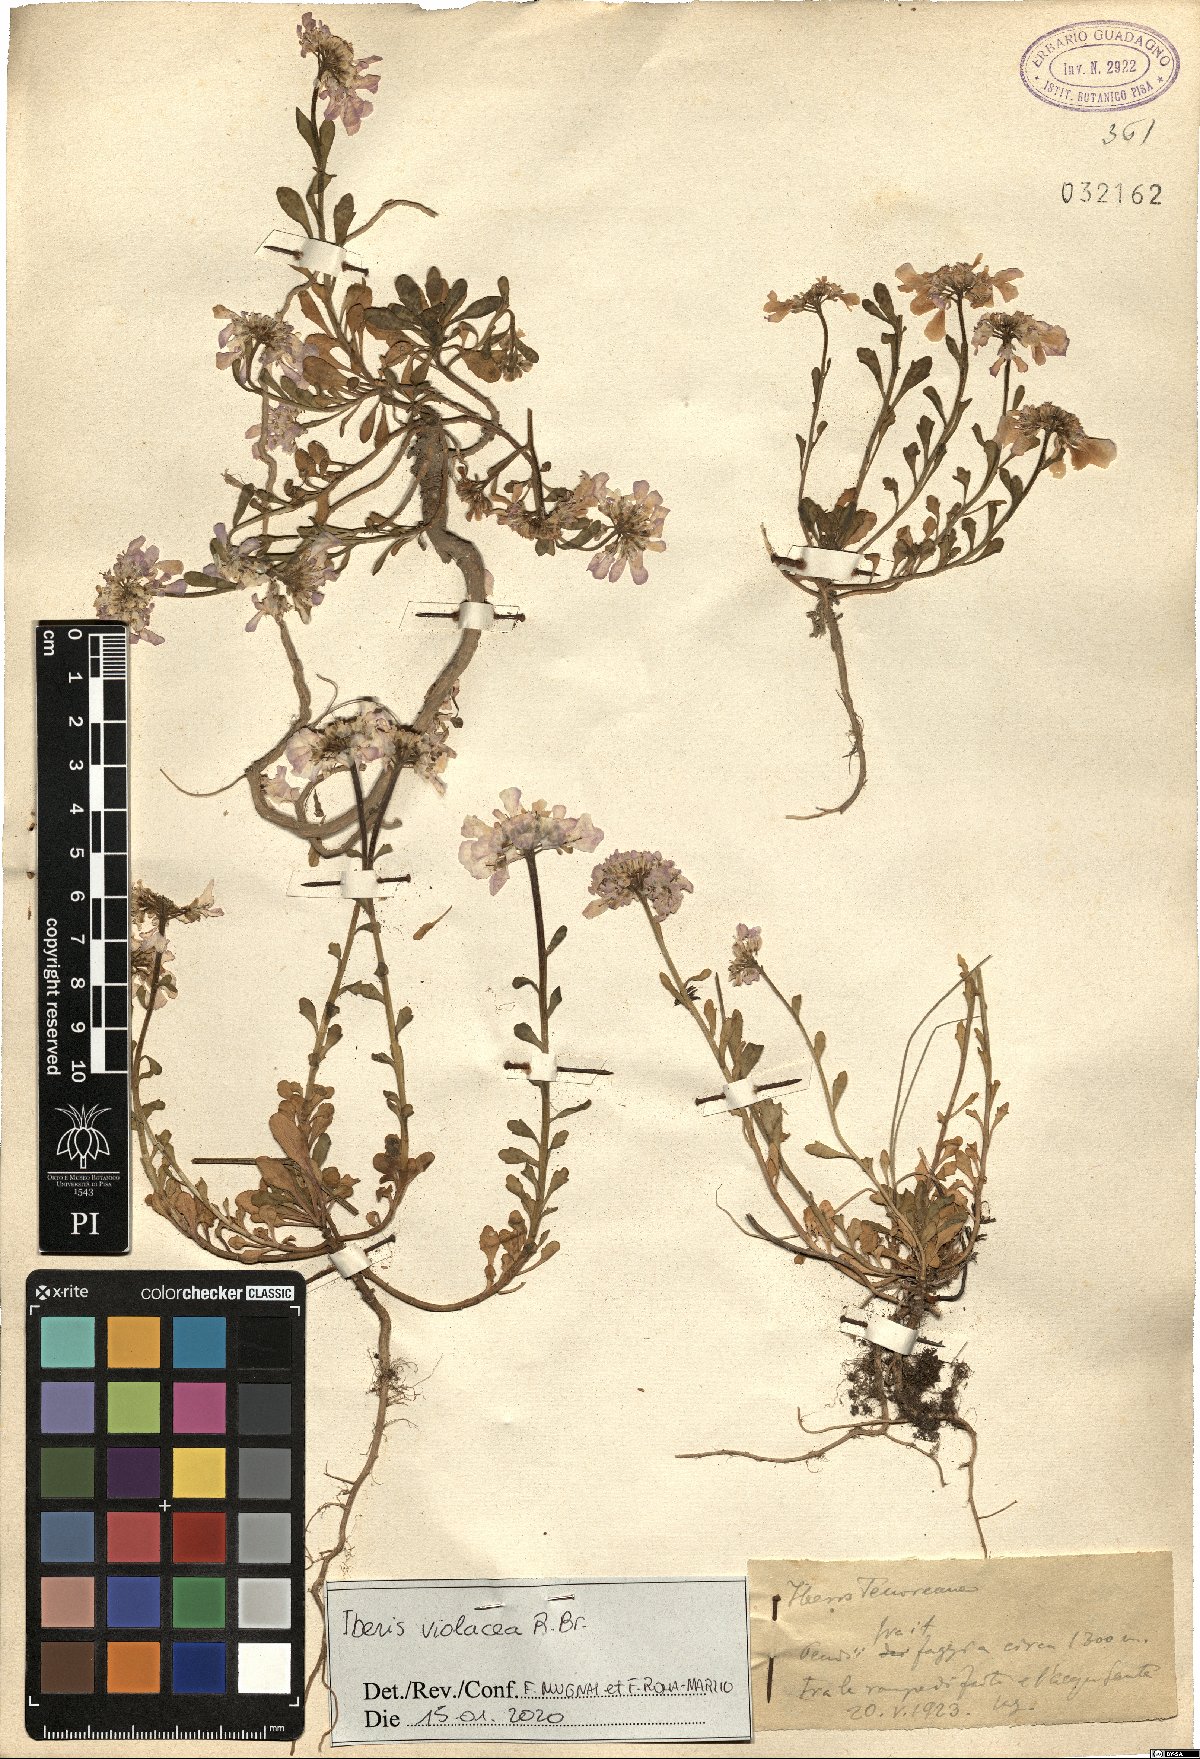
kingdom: Plantae
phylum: Tracheophyta
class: Magnoliopsida
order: Brassicales
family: Brassicaceae
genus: Iberis
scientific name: Iberis carnosa
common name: Pruit's candytuft
